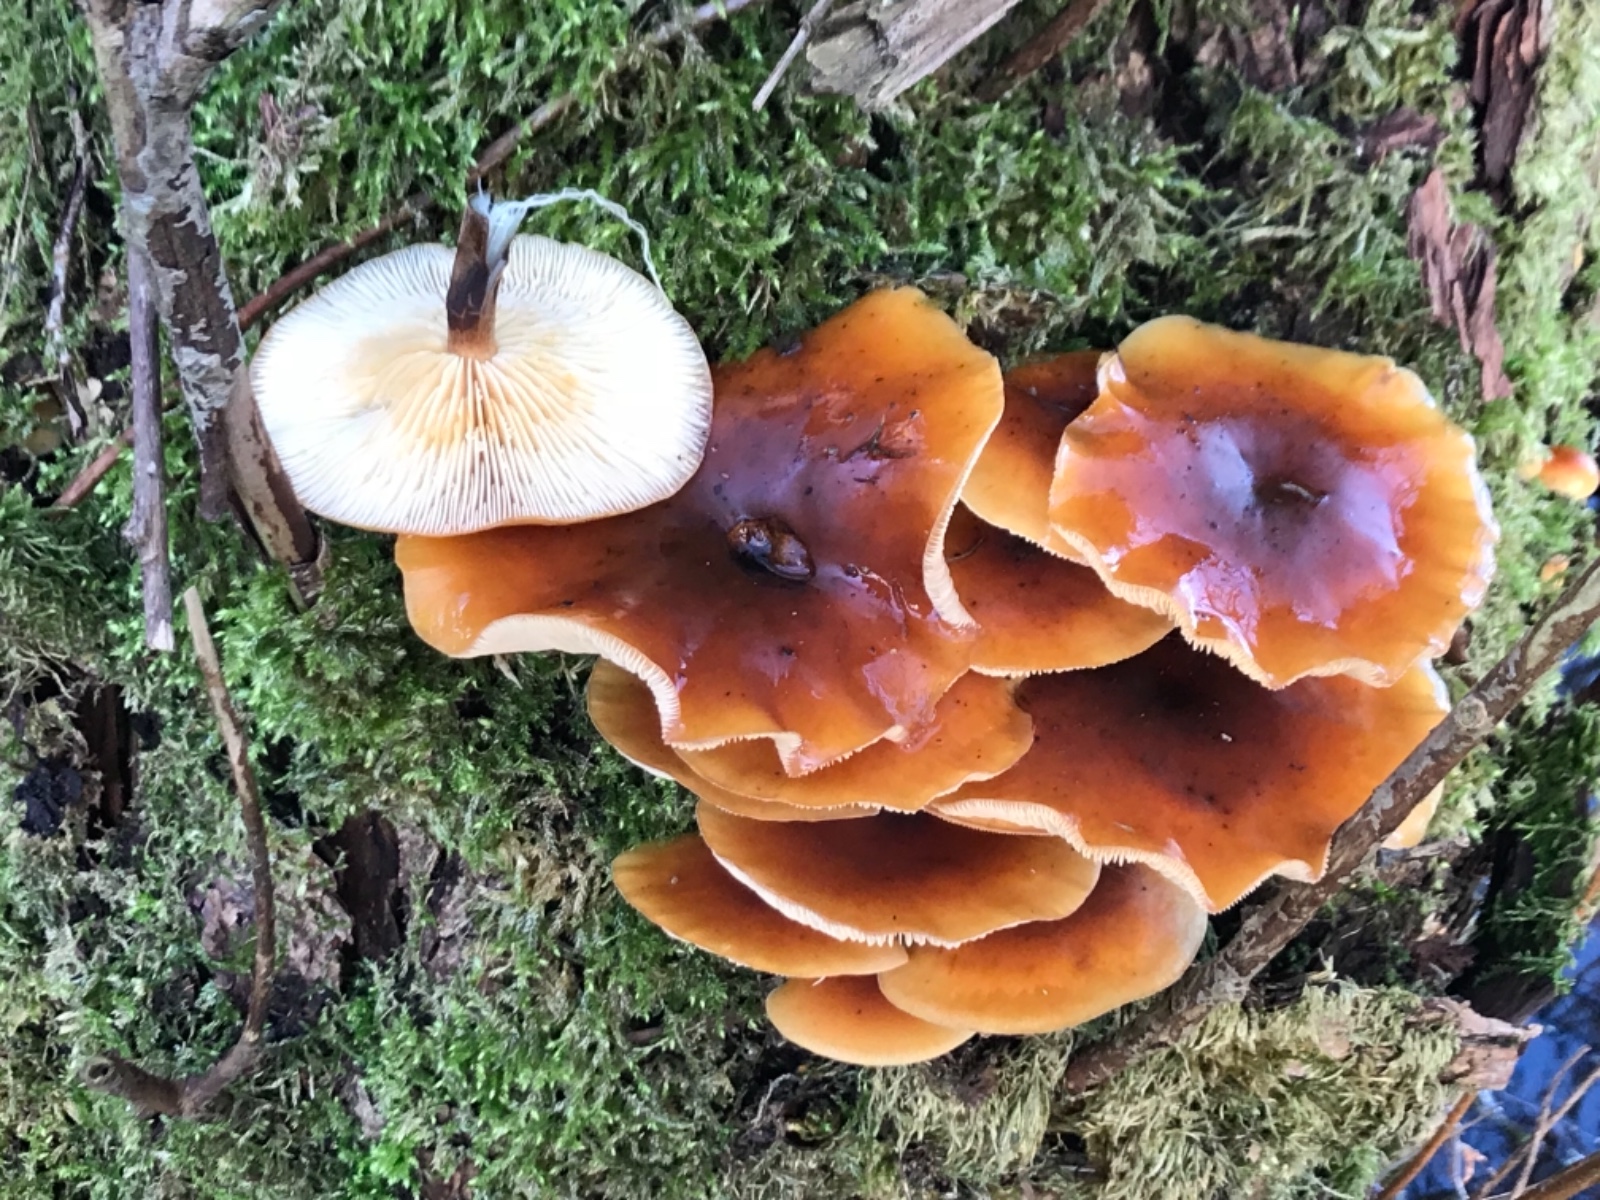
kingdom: Fungi
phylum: Basidiomycota
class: Agaricomycetes
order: Agaricales
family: Physalacriaceae
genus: Flammulina
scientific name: Flammulina velutipes
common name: gul fløjlsfod
